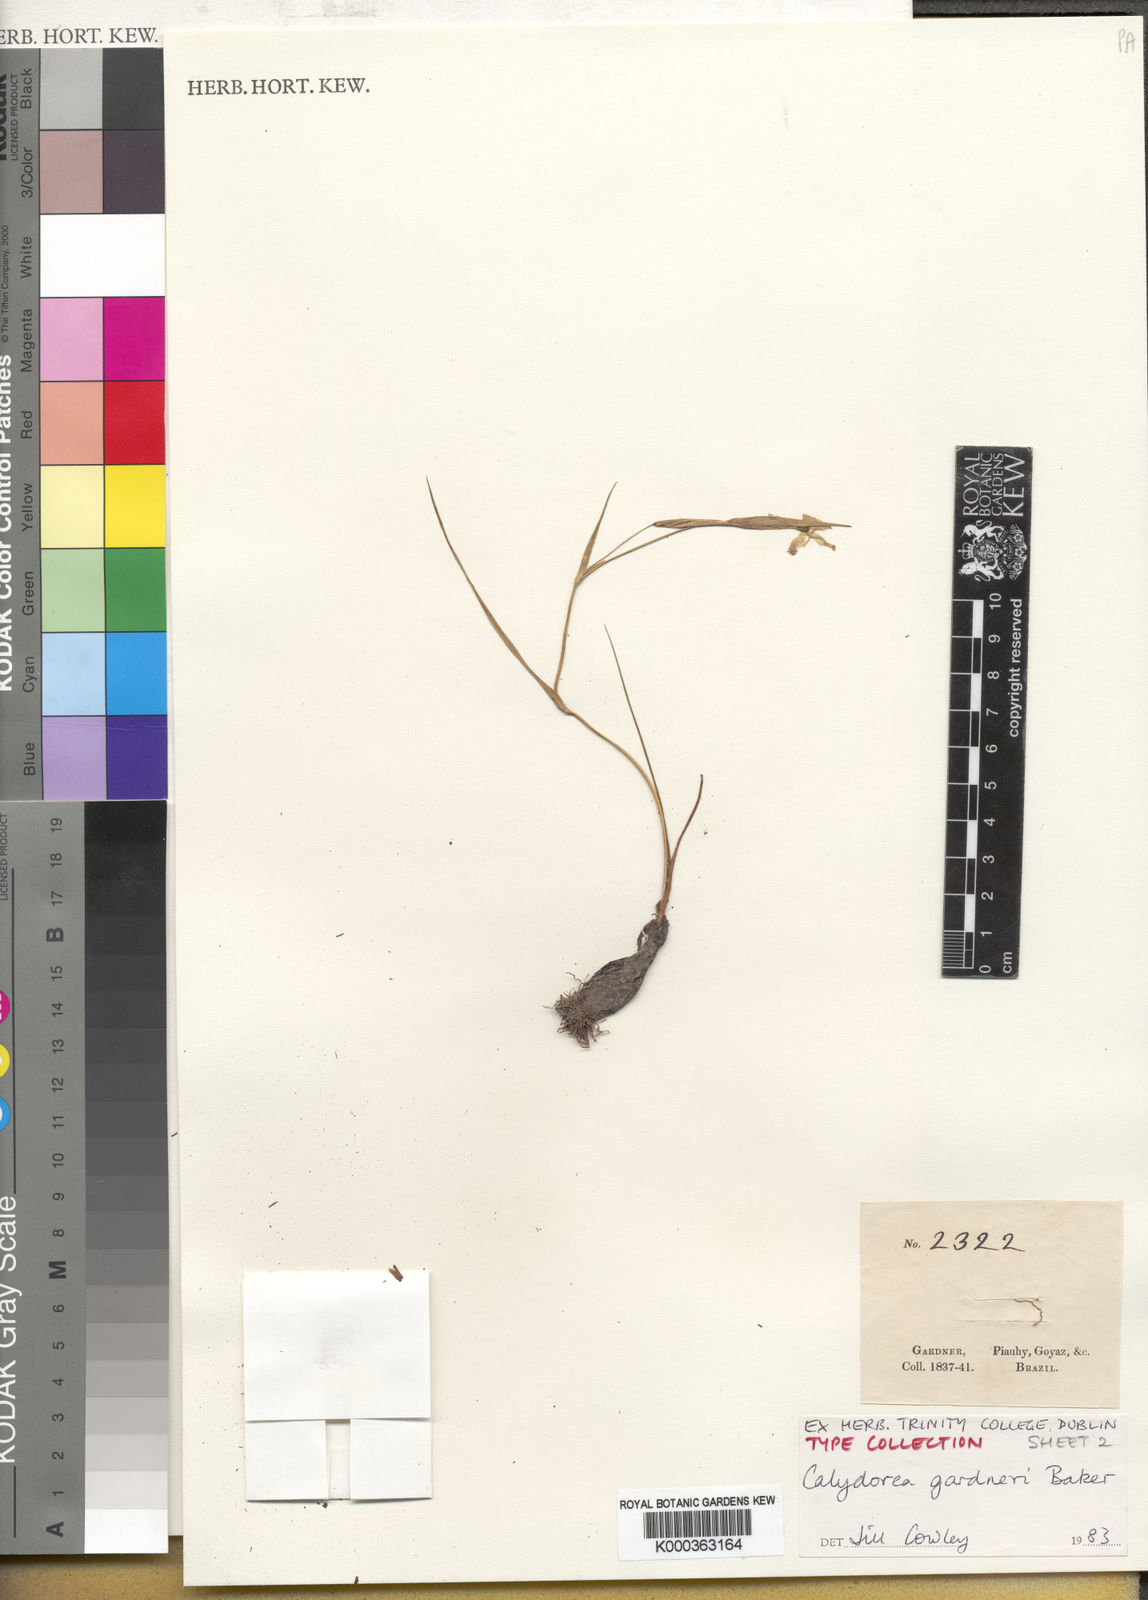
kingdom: Plantae
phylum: Tracheophyta
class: Liliopsida
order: Asparagales
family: Iridaceae
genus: Calydorea
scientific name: Calydorea gardneri
